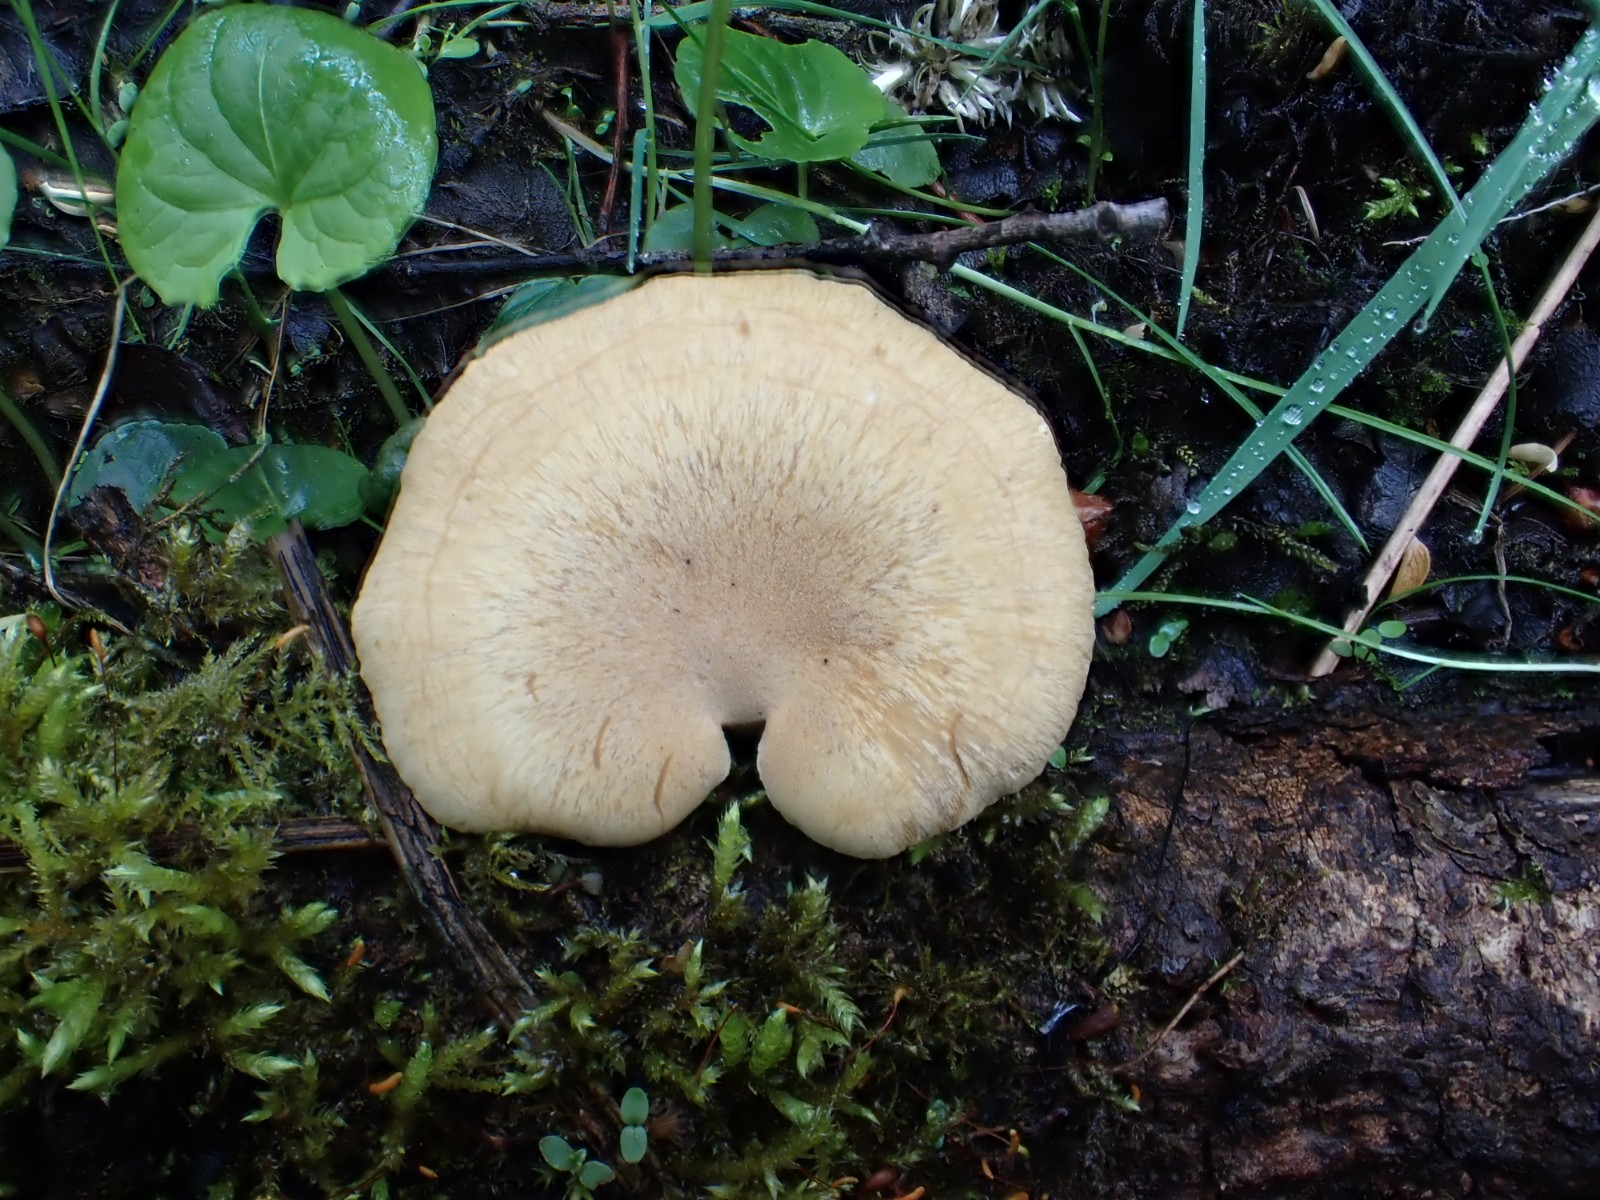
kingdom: Fungi
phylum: Basidiomycota
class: Agaricomycetes
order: Polyporales
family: Polyporaceae
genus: Cerioporus
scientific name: Cerioporus varius
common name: foranderlig stilkporesvamp
